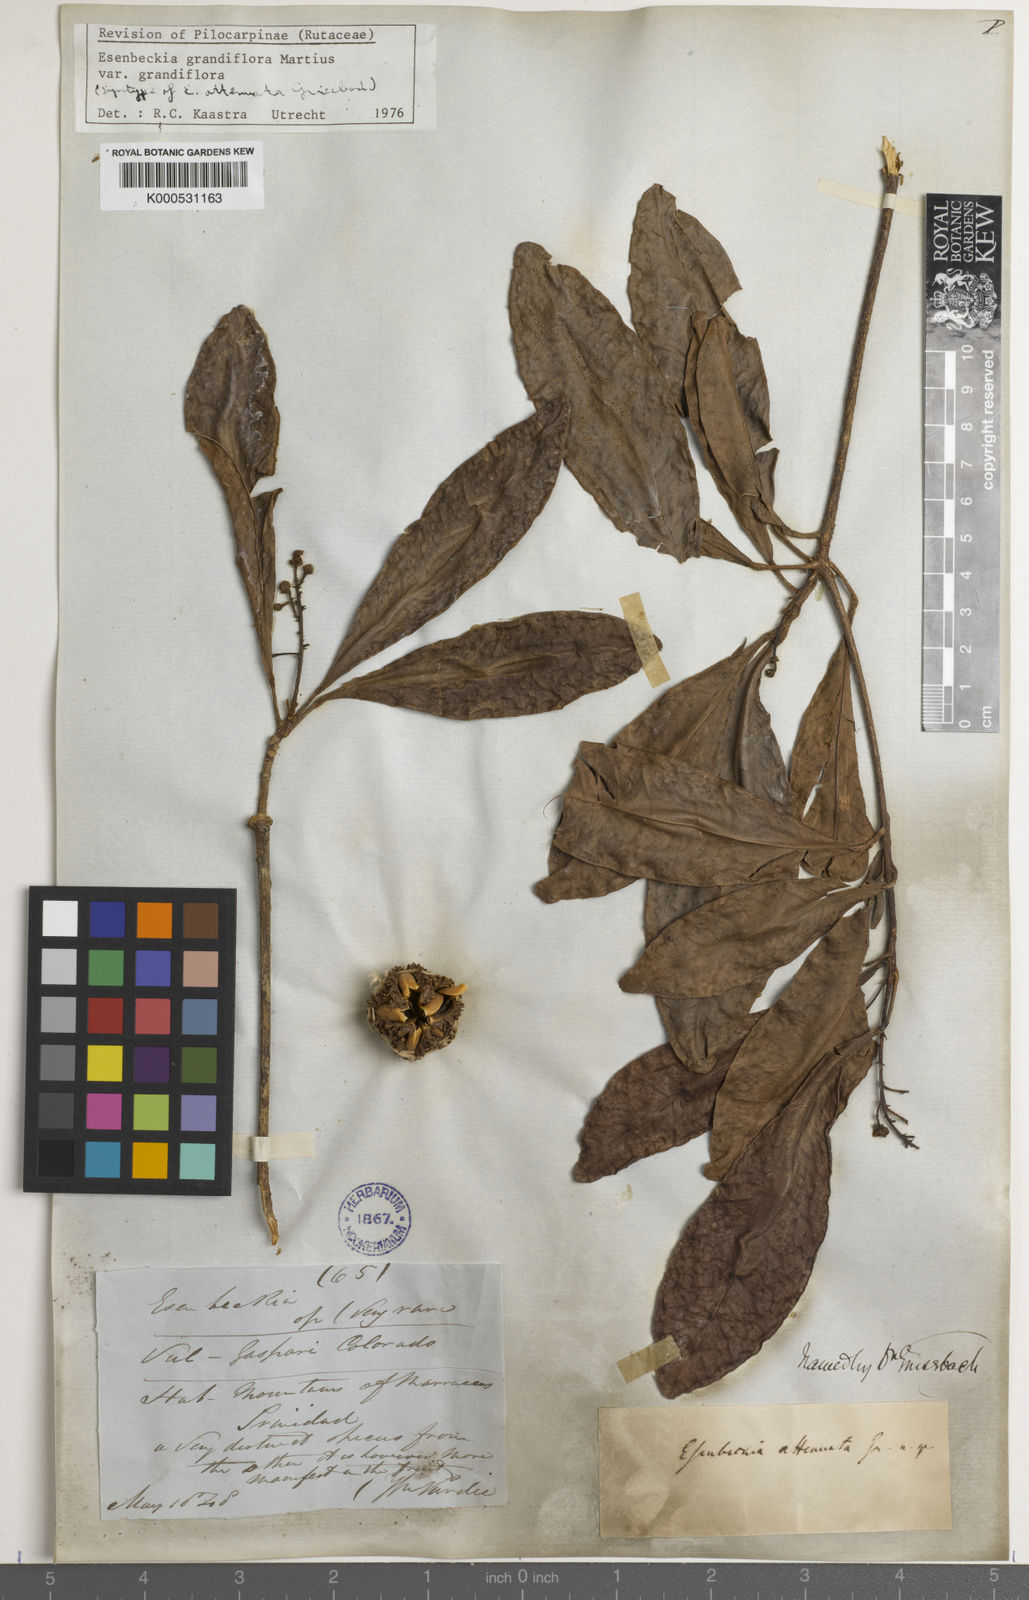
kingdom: Plantae
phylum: Tracheophyta
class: Magnoliopsida
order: Sapindales
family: Rutaceae
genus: Esenbeckia
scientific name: Esenbeckia grandiflora
